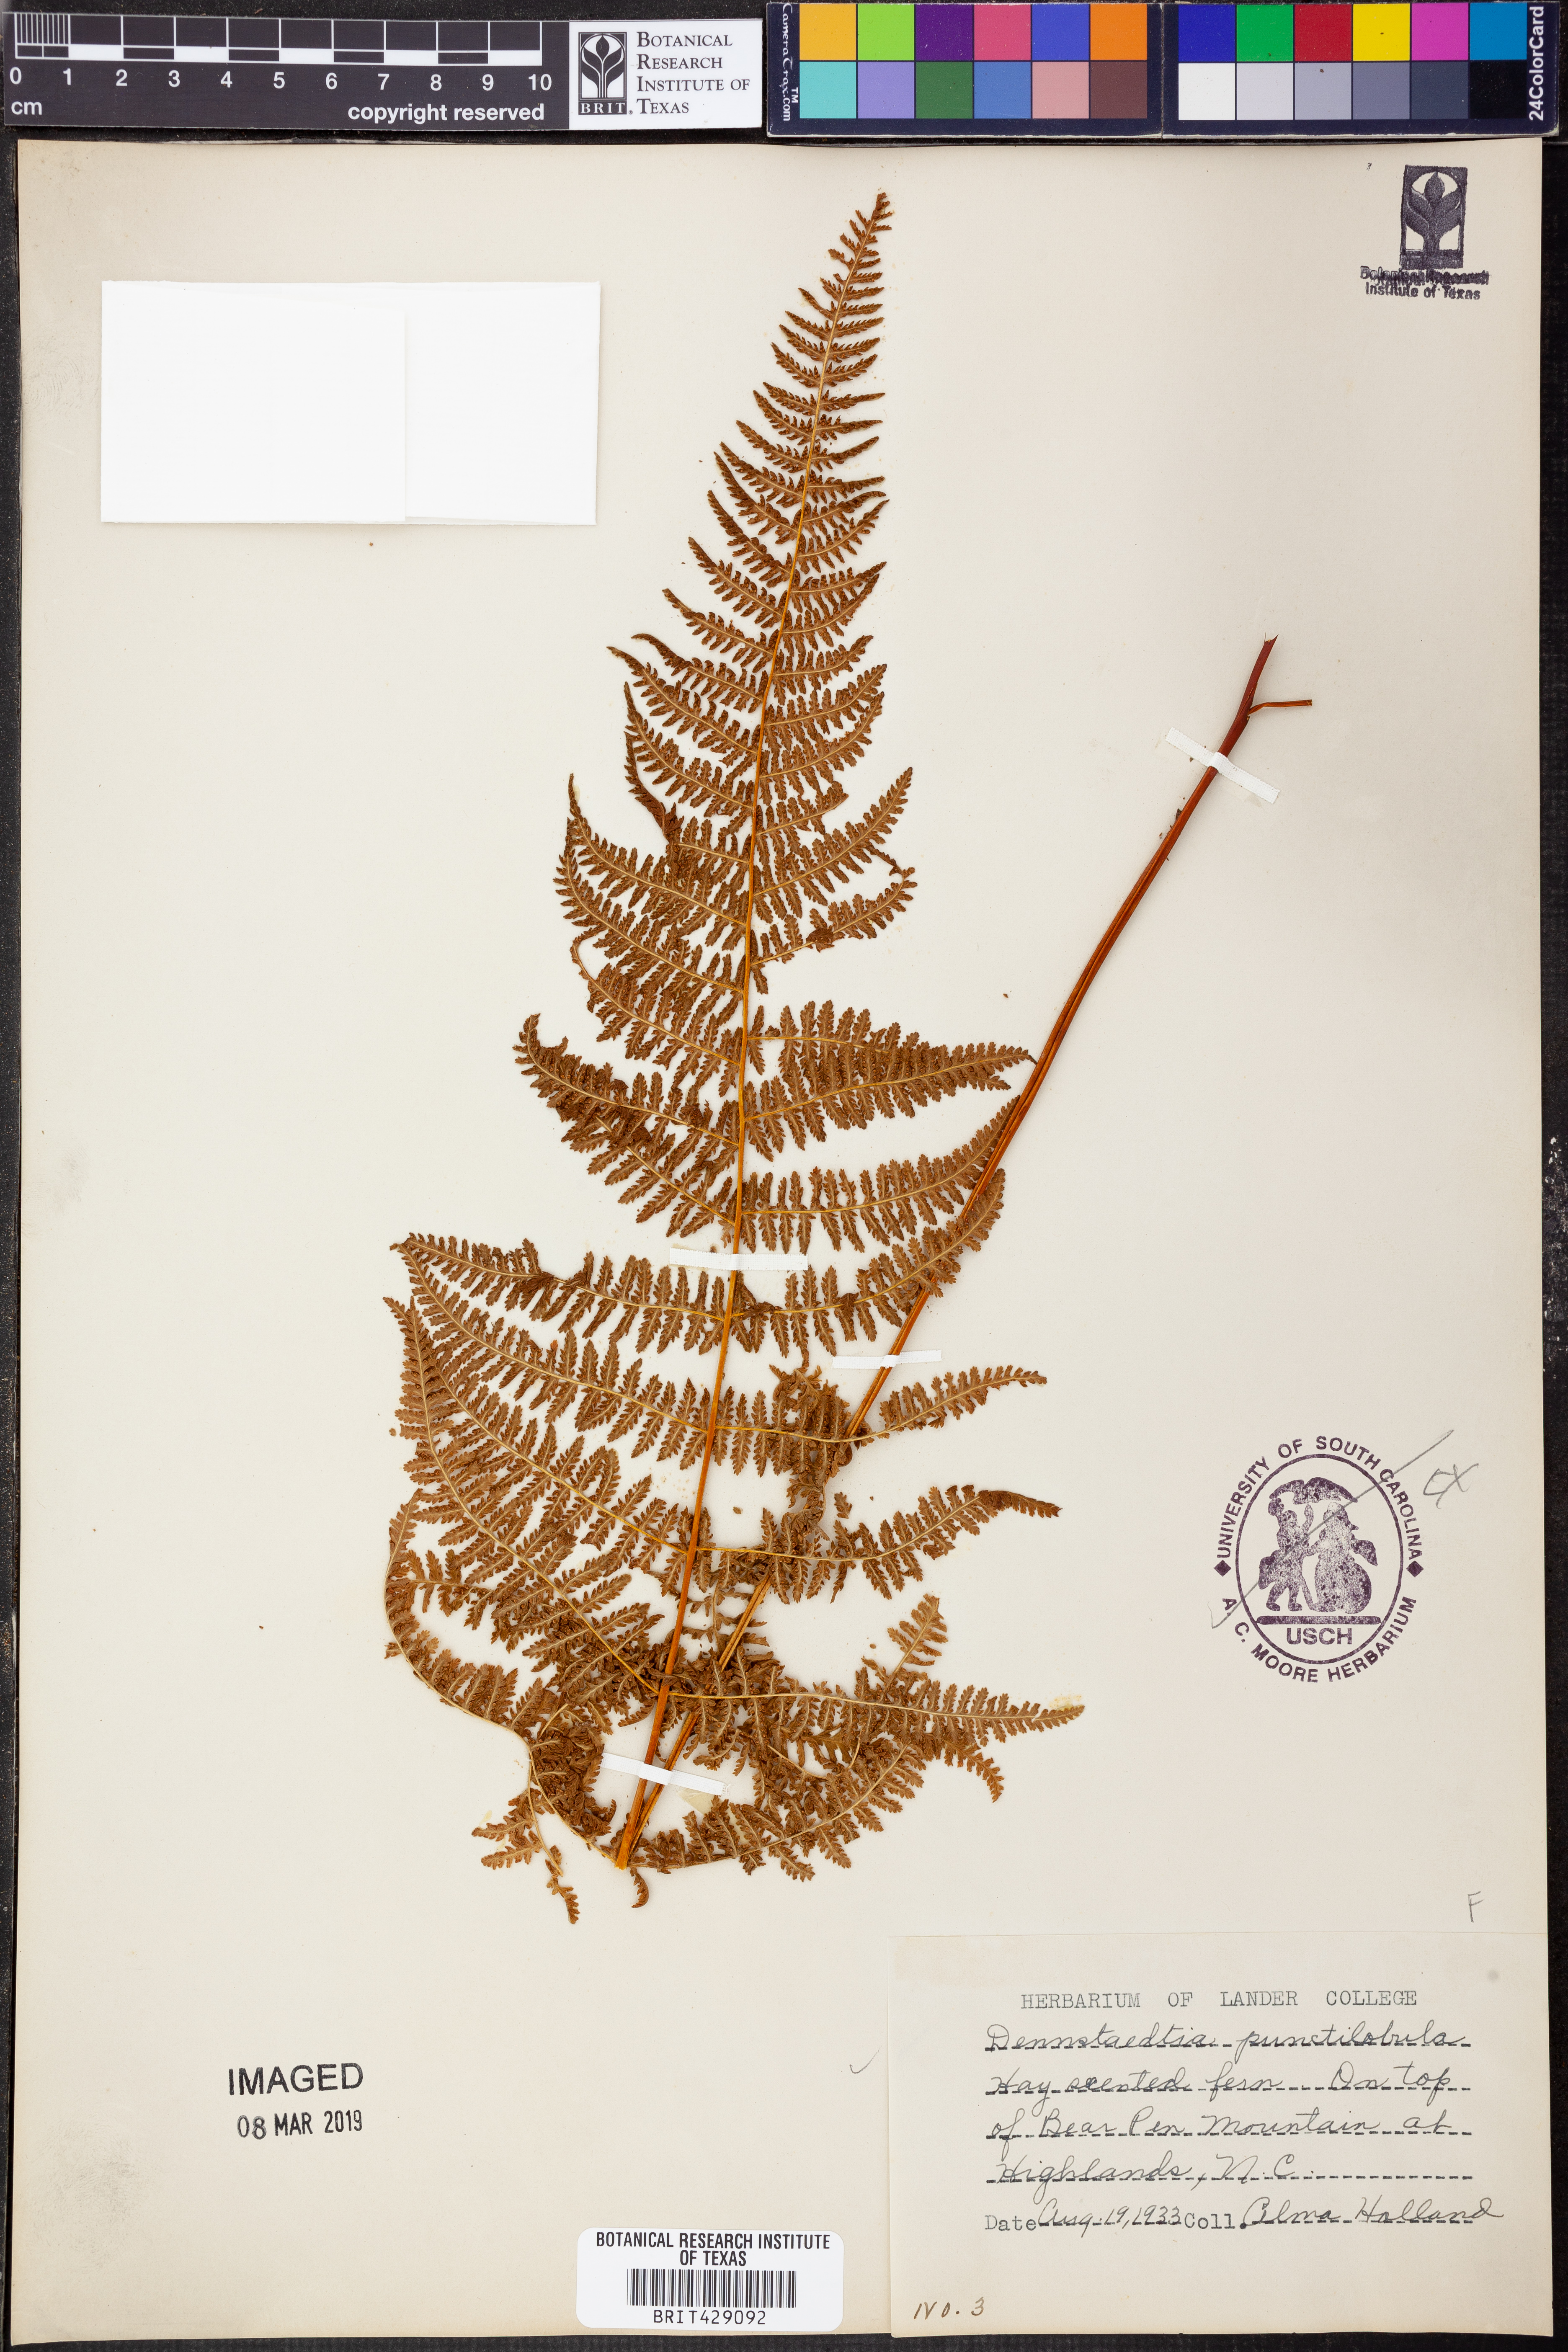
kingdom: Plantae
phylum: Tracheophyta
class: Polypodiopsida
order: Polypodiales
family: Dennstaedtiaceae
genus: Sitobolium
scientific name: Sitobolium punctilobum
